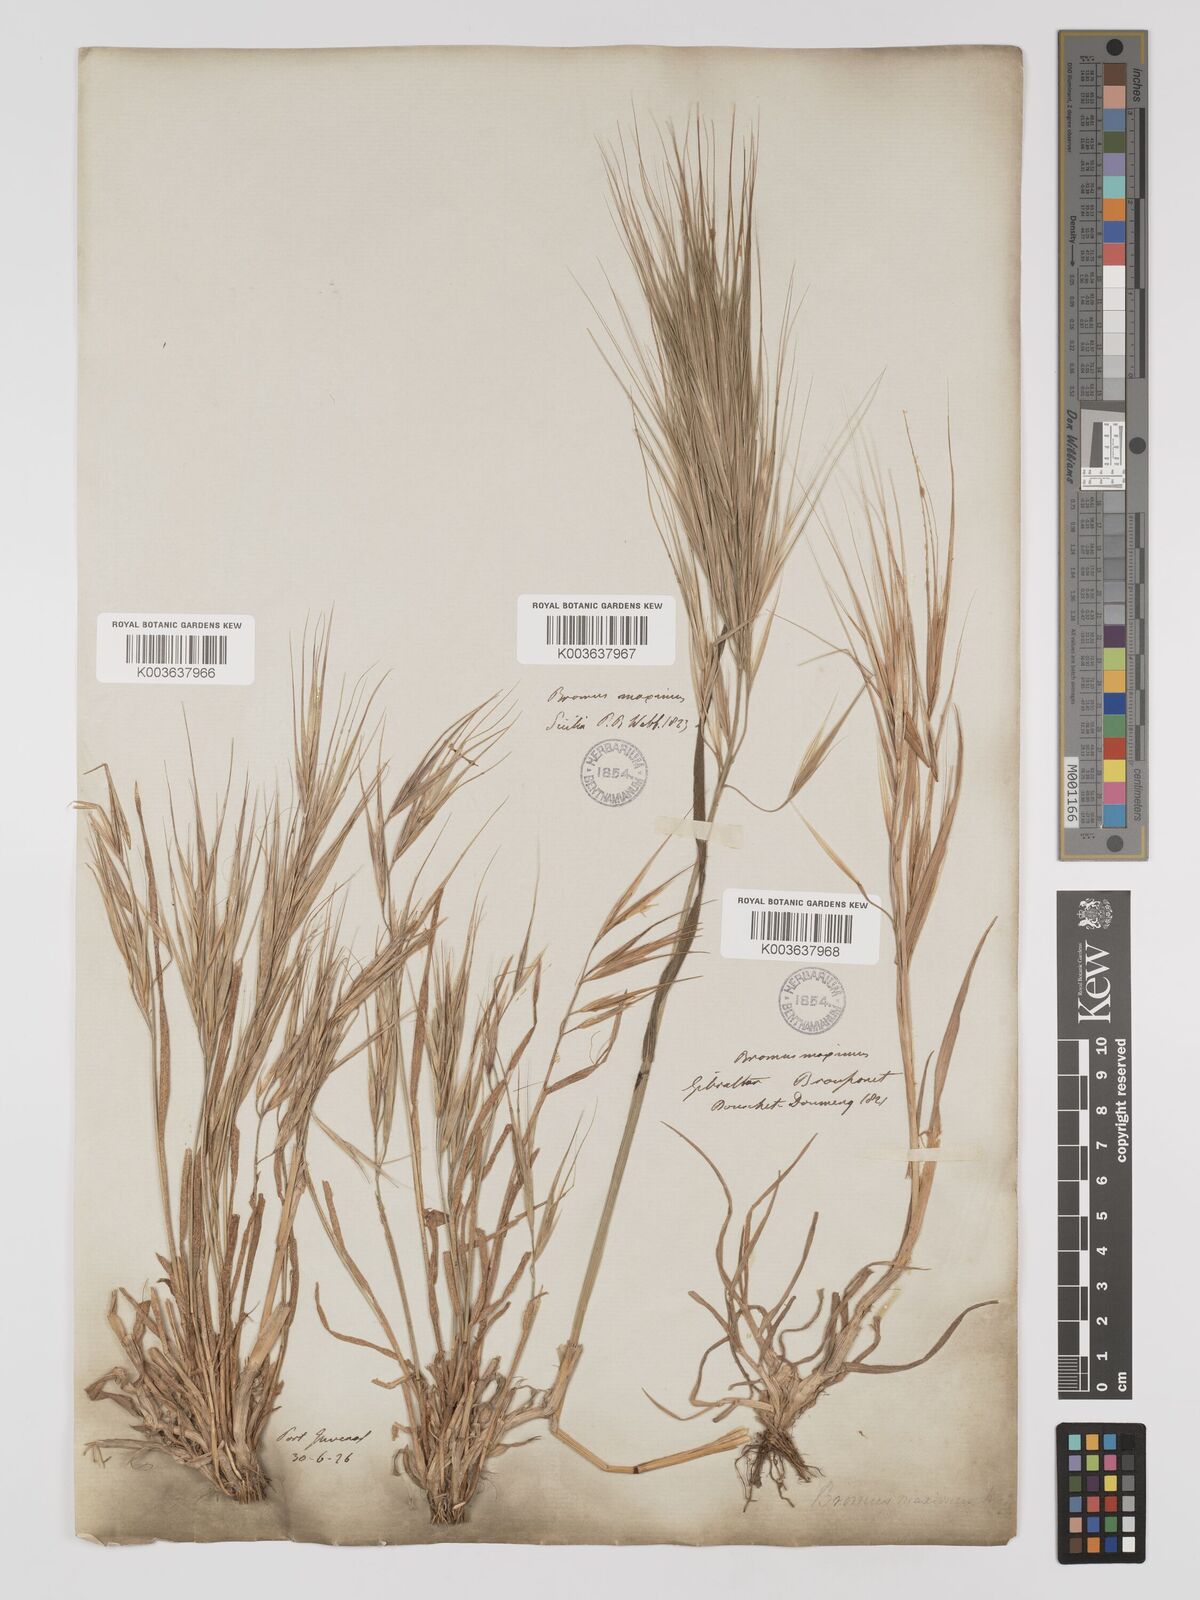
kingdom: Plantae
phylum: Tracheophyta
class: Liliopsida
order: Poales
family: Poaceae
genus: Bromus
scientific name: Bromus
